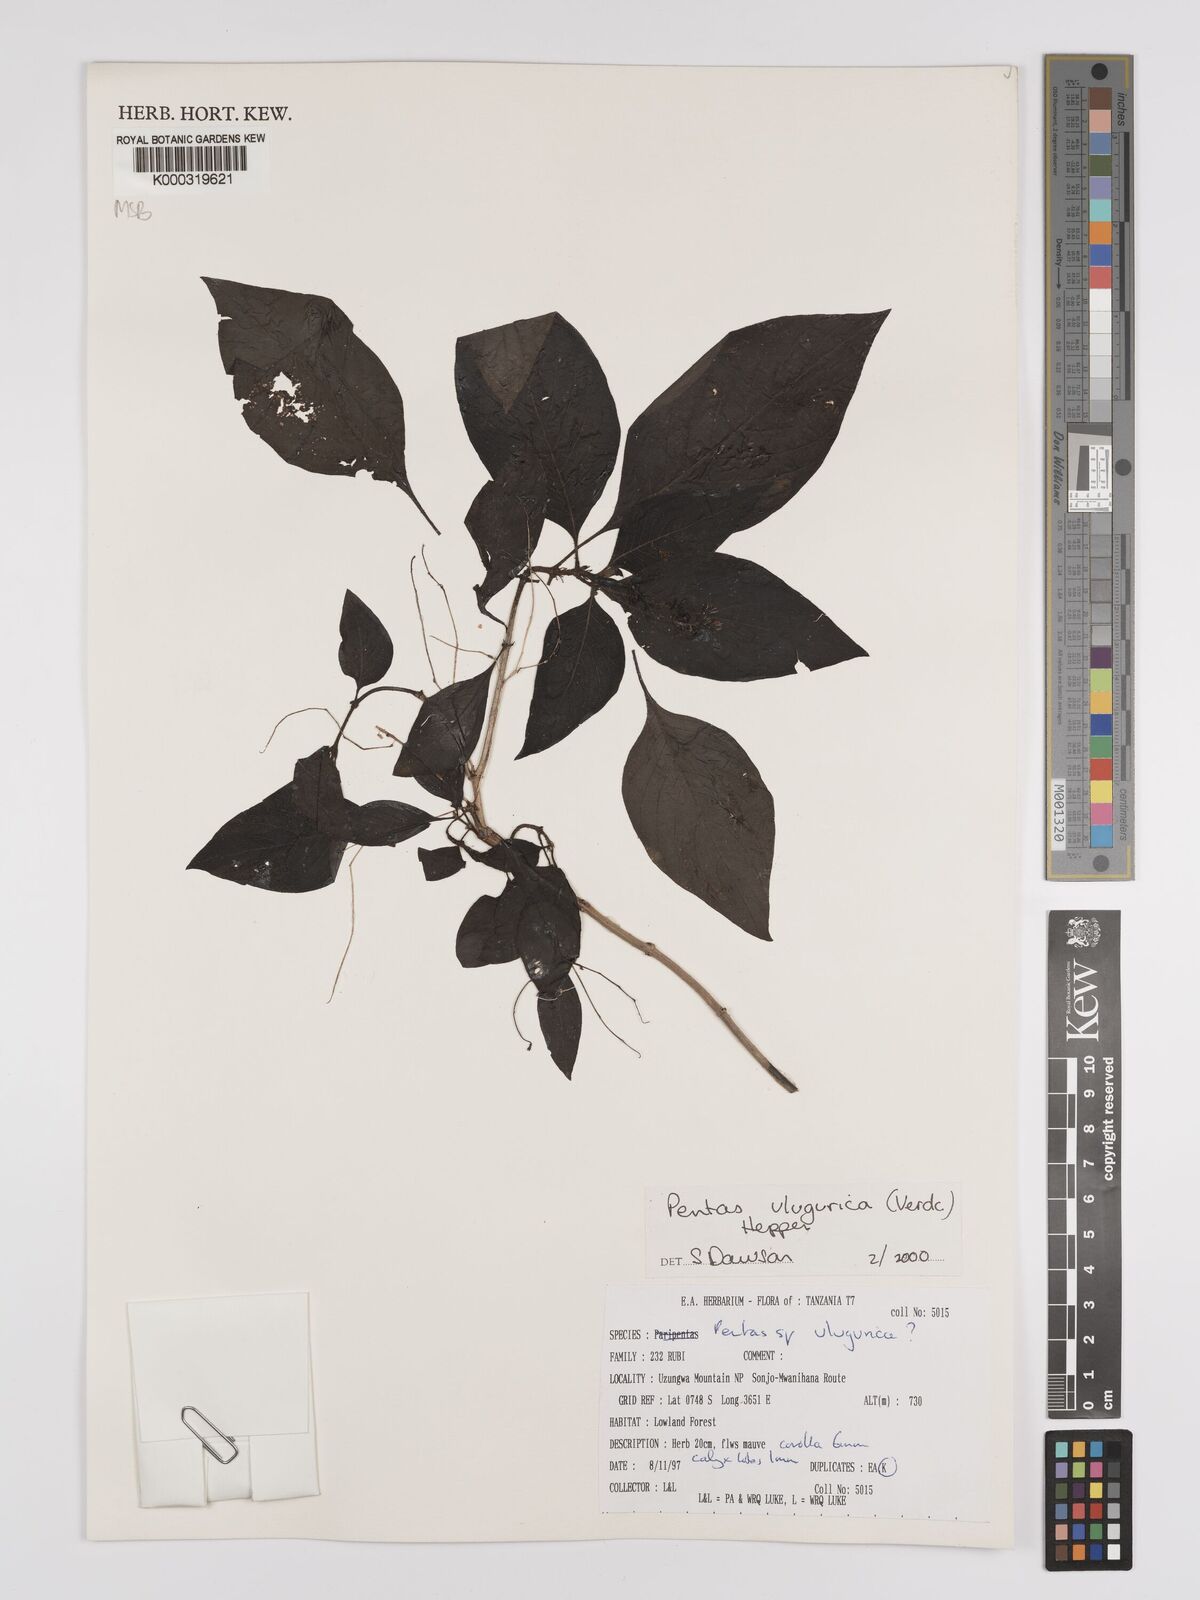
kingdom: Plantae
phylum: Tracheophyta
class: Magnoliopsida
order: Gentianales
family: Rubiaceae
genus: Phyllopentas
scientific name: Phyllopentas ulugurica
